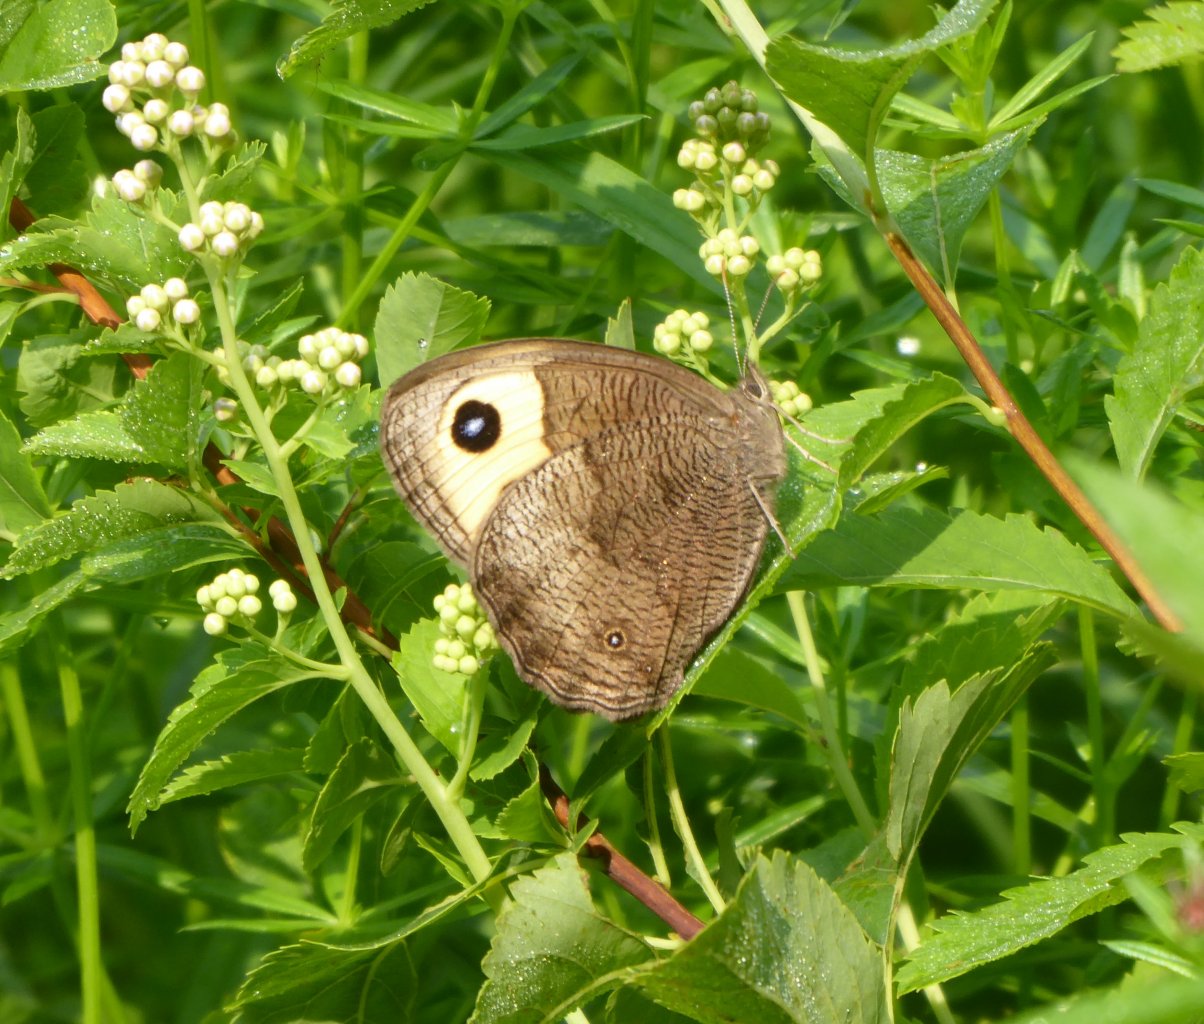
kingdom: Animalia
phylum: Arthropoda
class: Insecta
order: Lepidoptera
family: Nymphalidae
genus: Speyeria
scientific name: Speyeria cybele
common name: Great Spangled Fritillary
